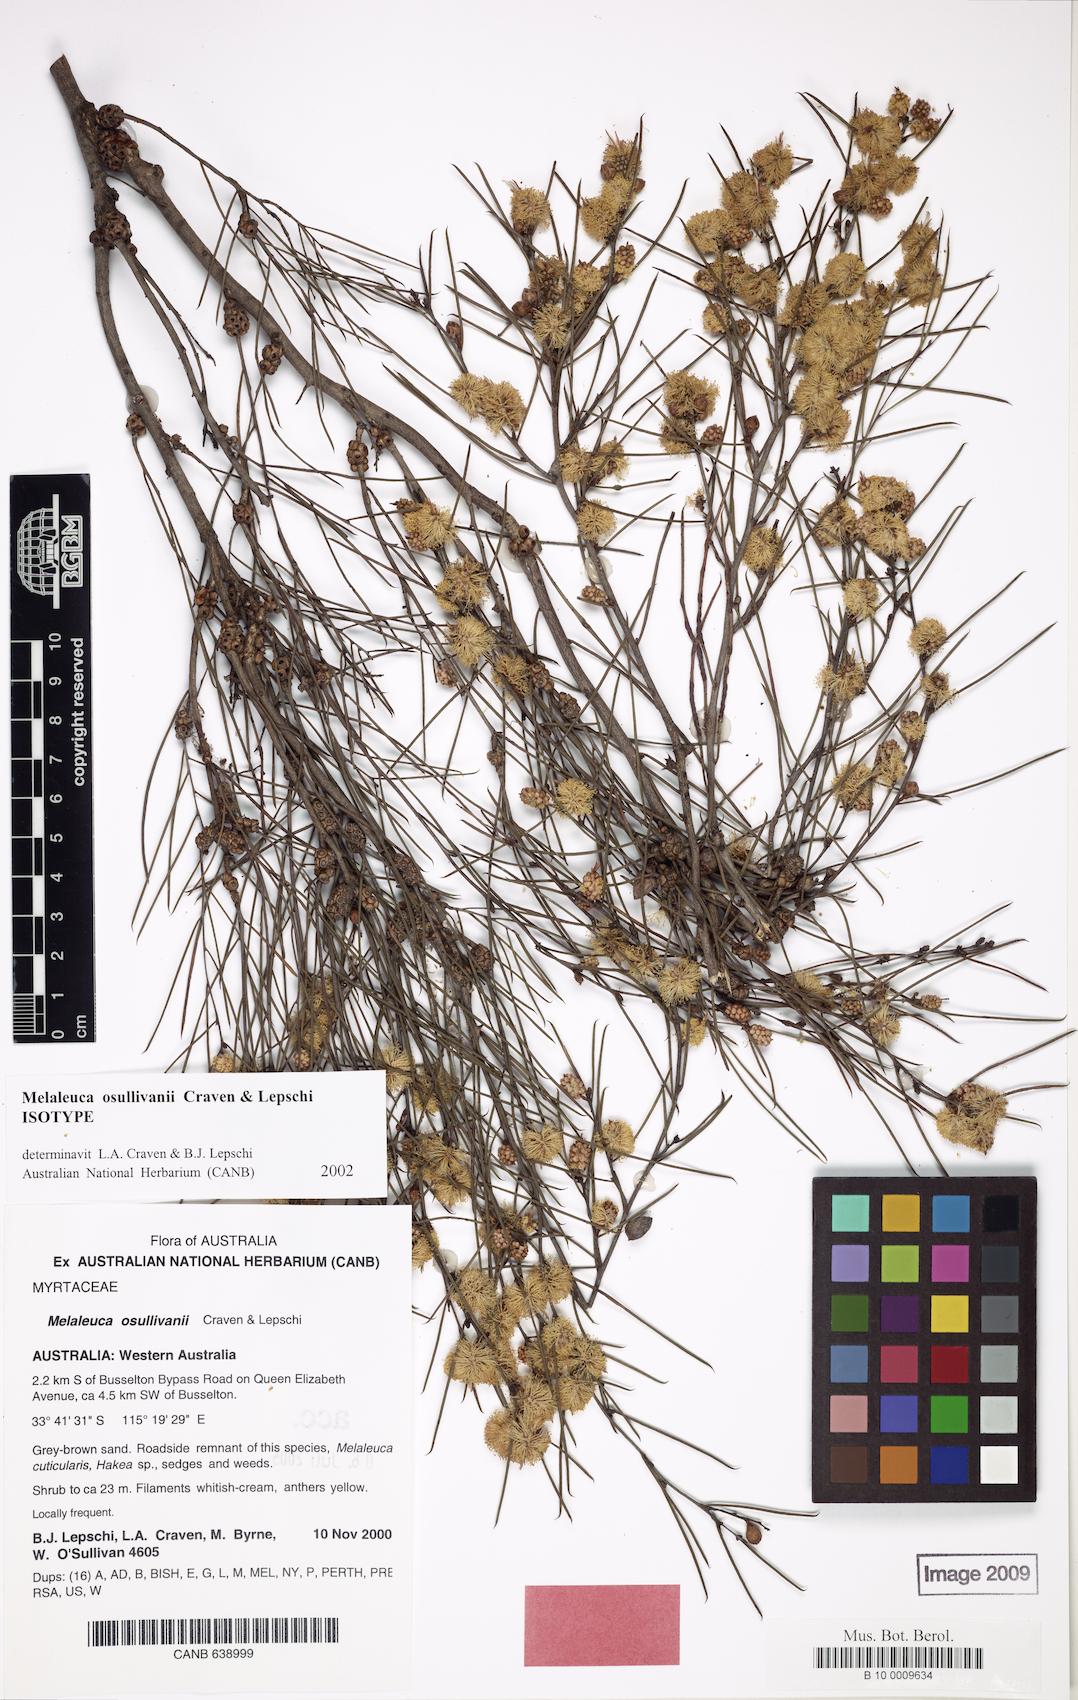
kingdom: Plantae
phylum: Tracheophyta
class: Magnoliopsida
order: Myrtales
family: Myrtaceae
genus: Melaleuca
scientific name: Melaleuca osullivanii
